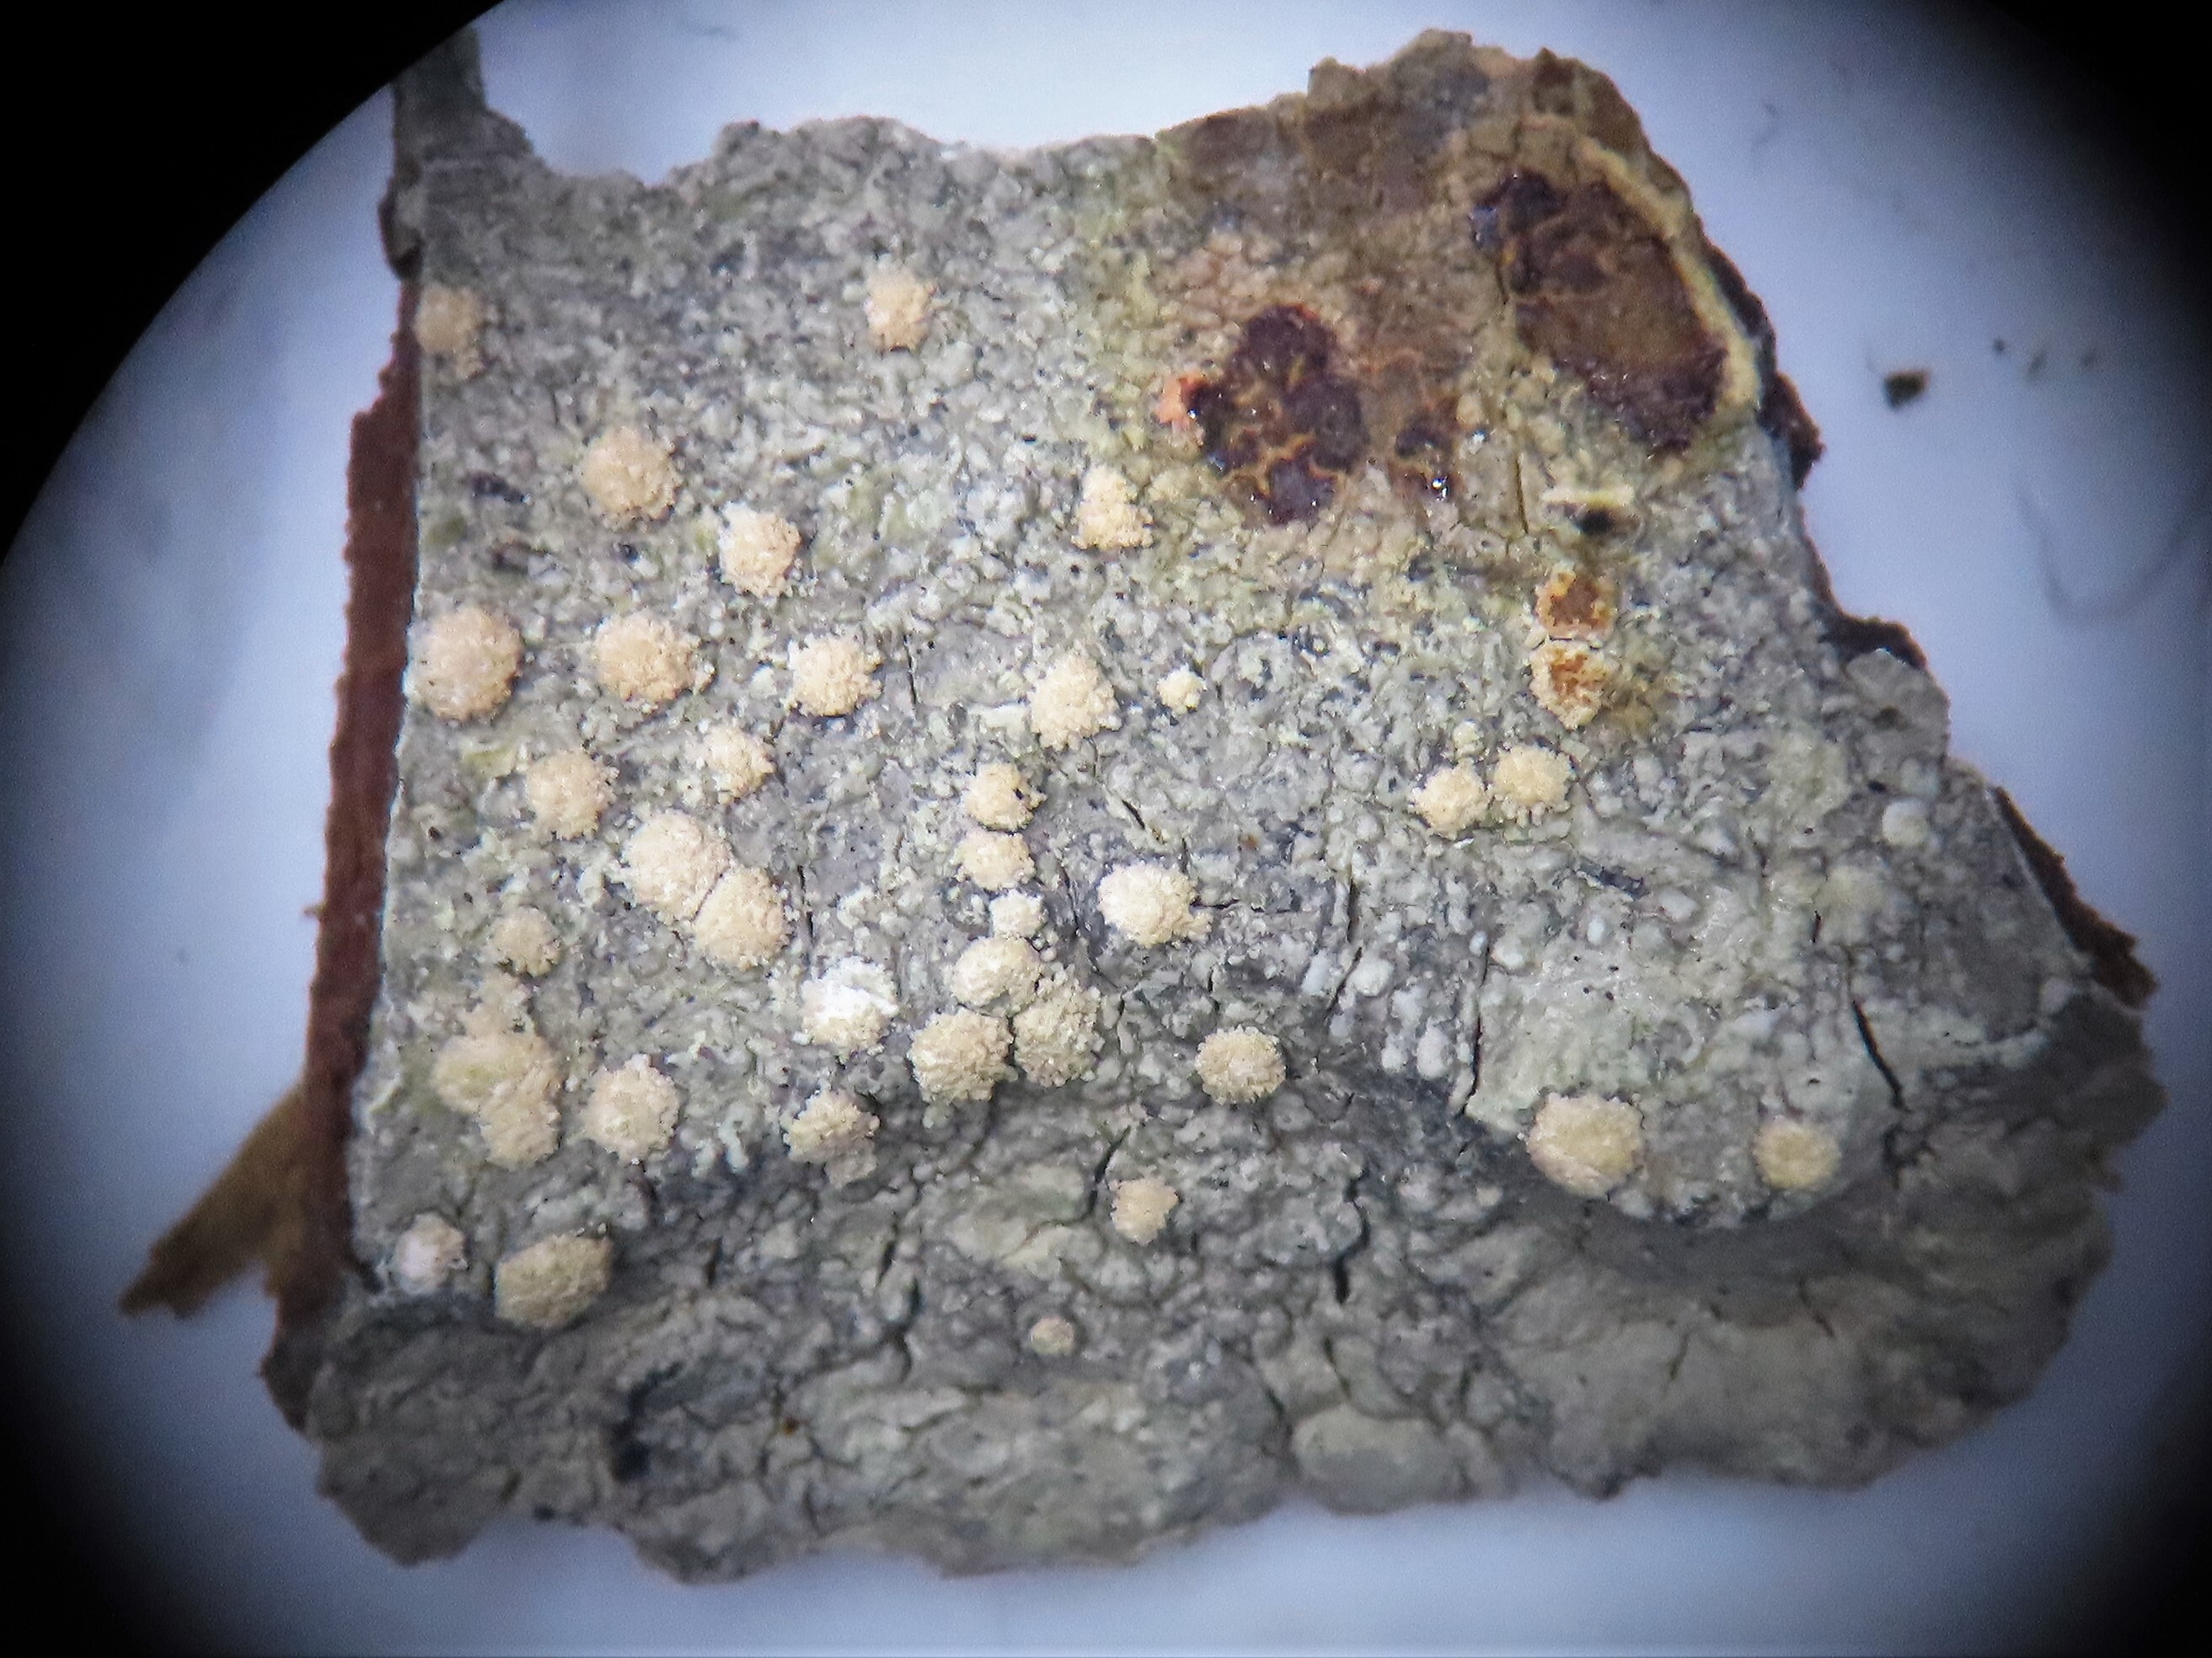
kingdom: Fungi
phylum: Ascomycota
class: Lecanoromycetes
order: Pertusariales
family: Pertusariaceae
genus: Lepra
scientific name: Lepra ophthalmiza
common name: Ragged wart lichen
